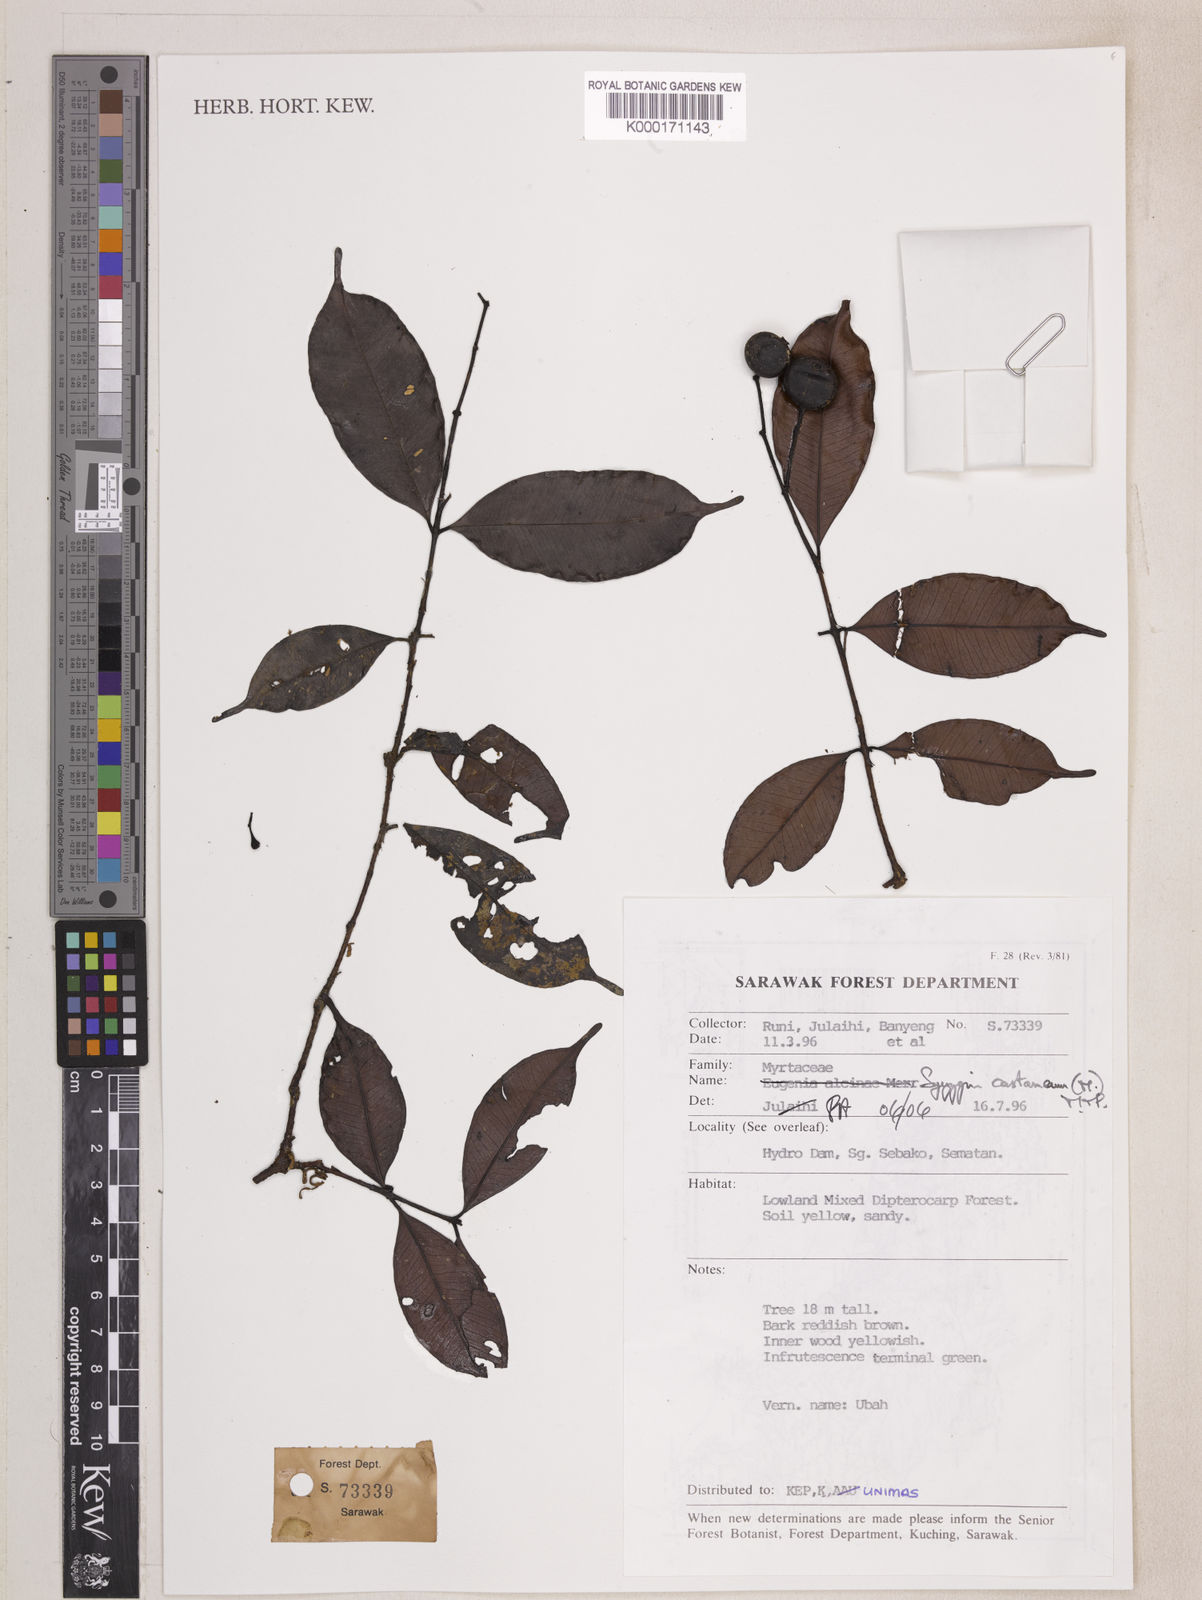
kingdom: Plantae
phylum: Tracheophyta
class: Magnoliopsida
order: Myrtales
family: Myrtaceae
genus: Syzygium
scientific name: Syzygium castaneum
